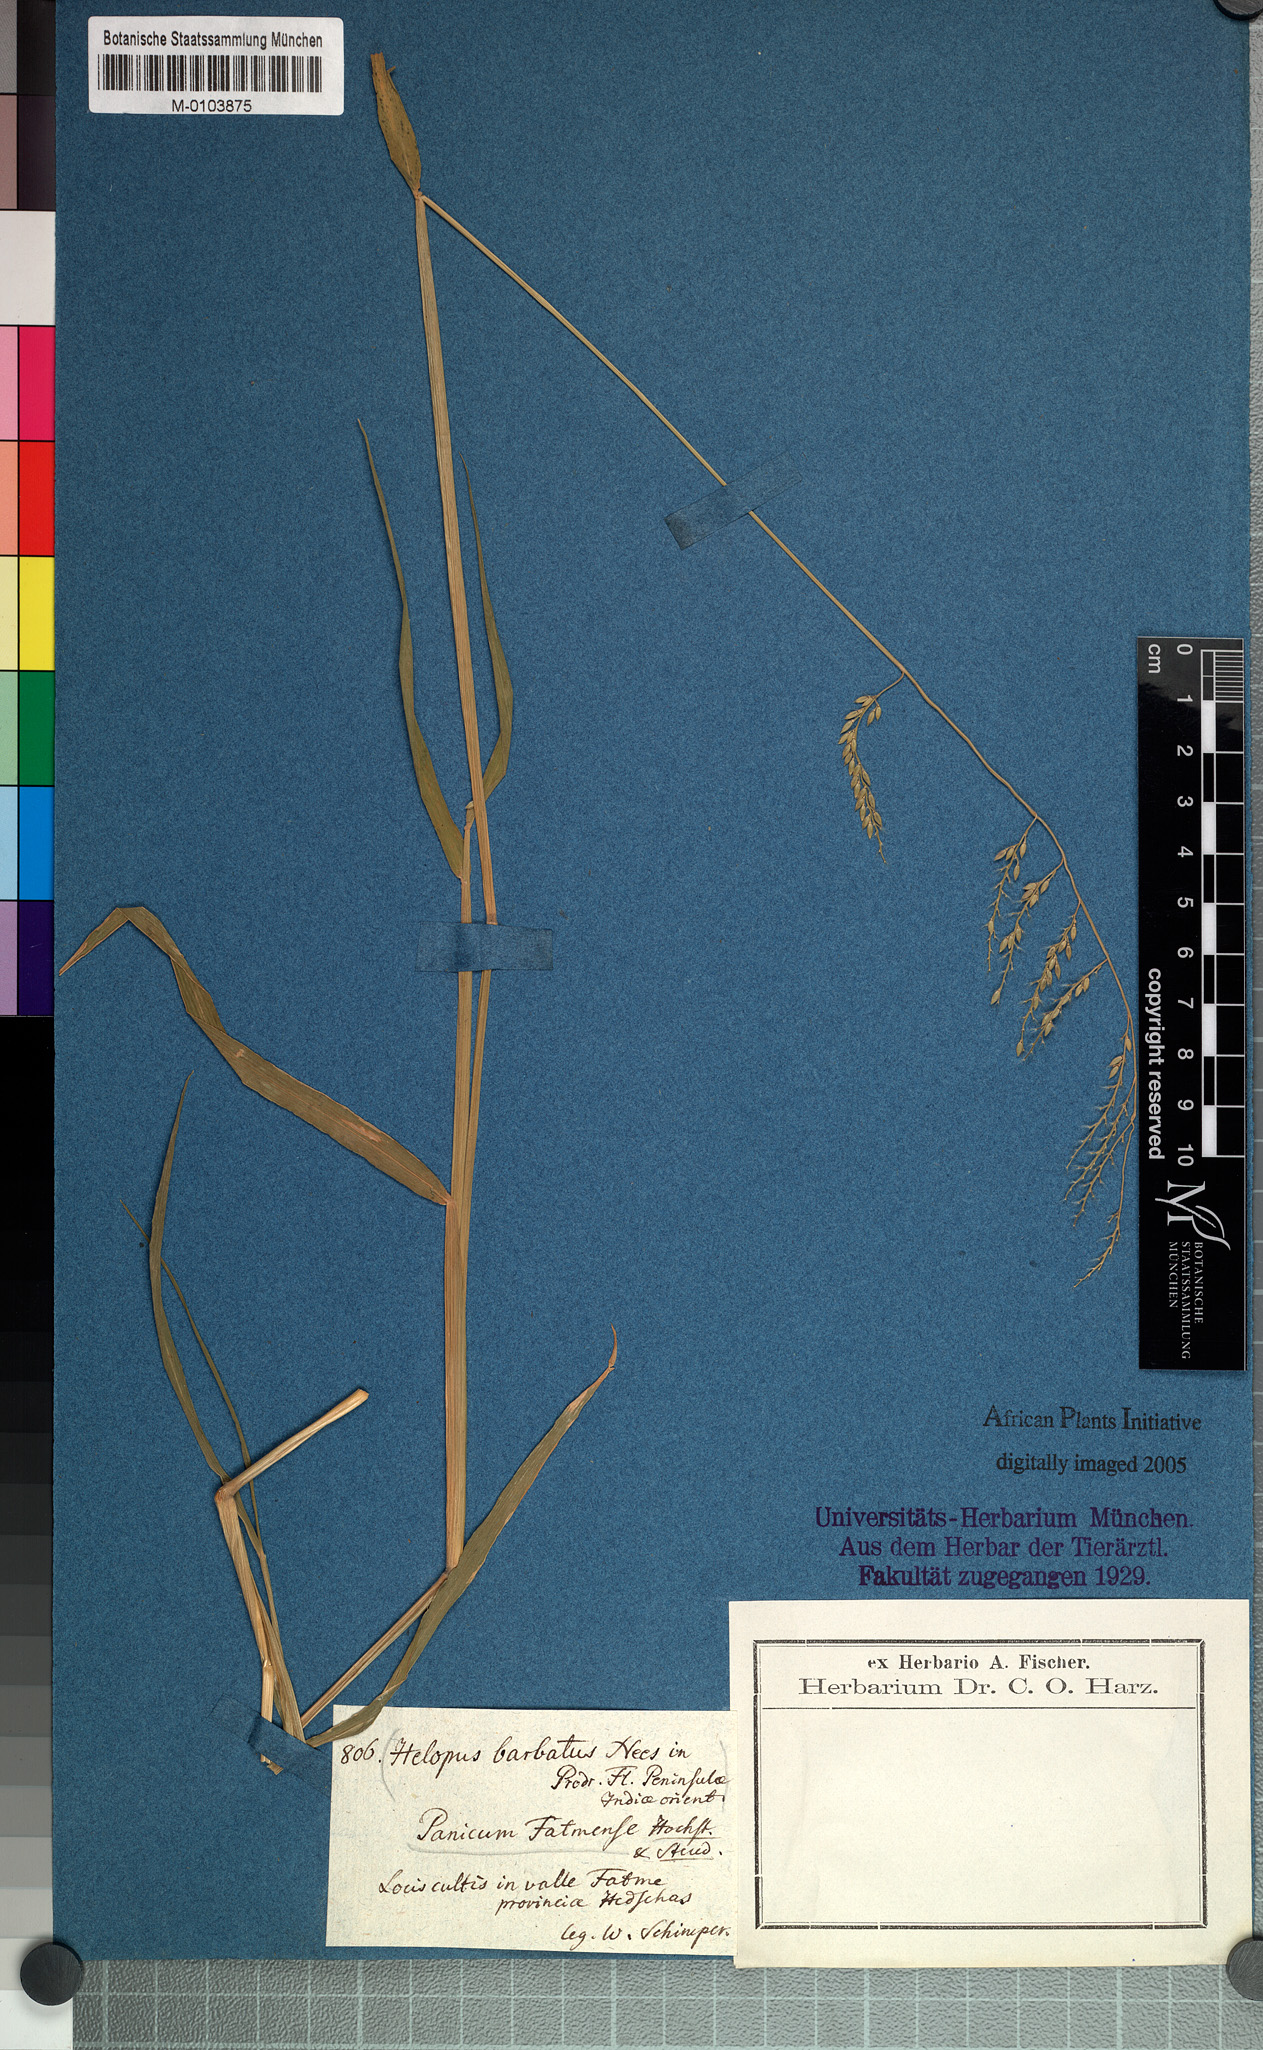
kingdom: Plantae
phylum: Tracheophyta
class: Liliopsida
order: Poales
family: Poaceae
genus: Eriochloa
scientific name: Eriochloa barbatus
